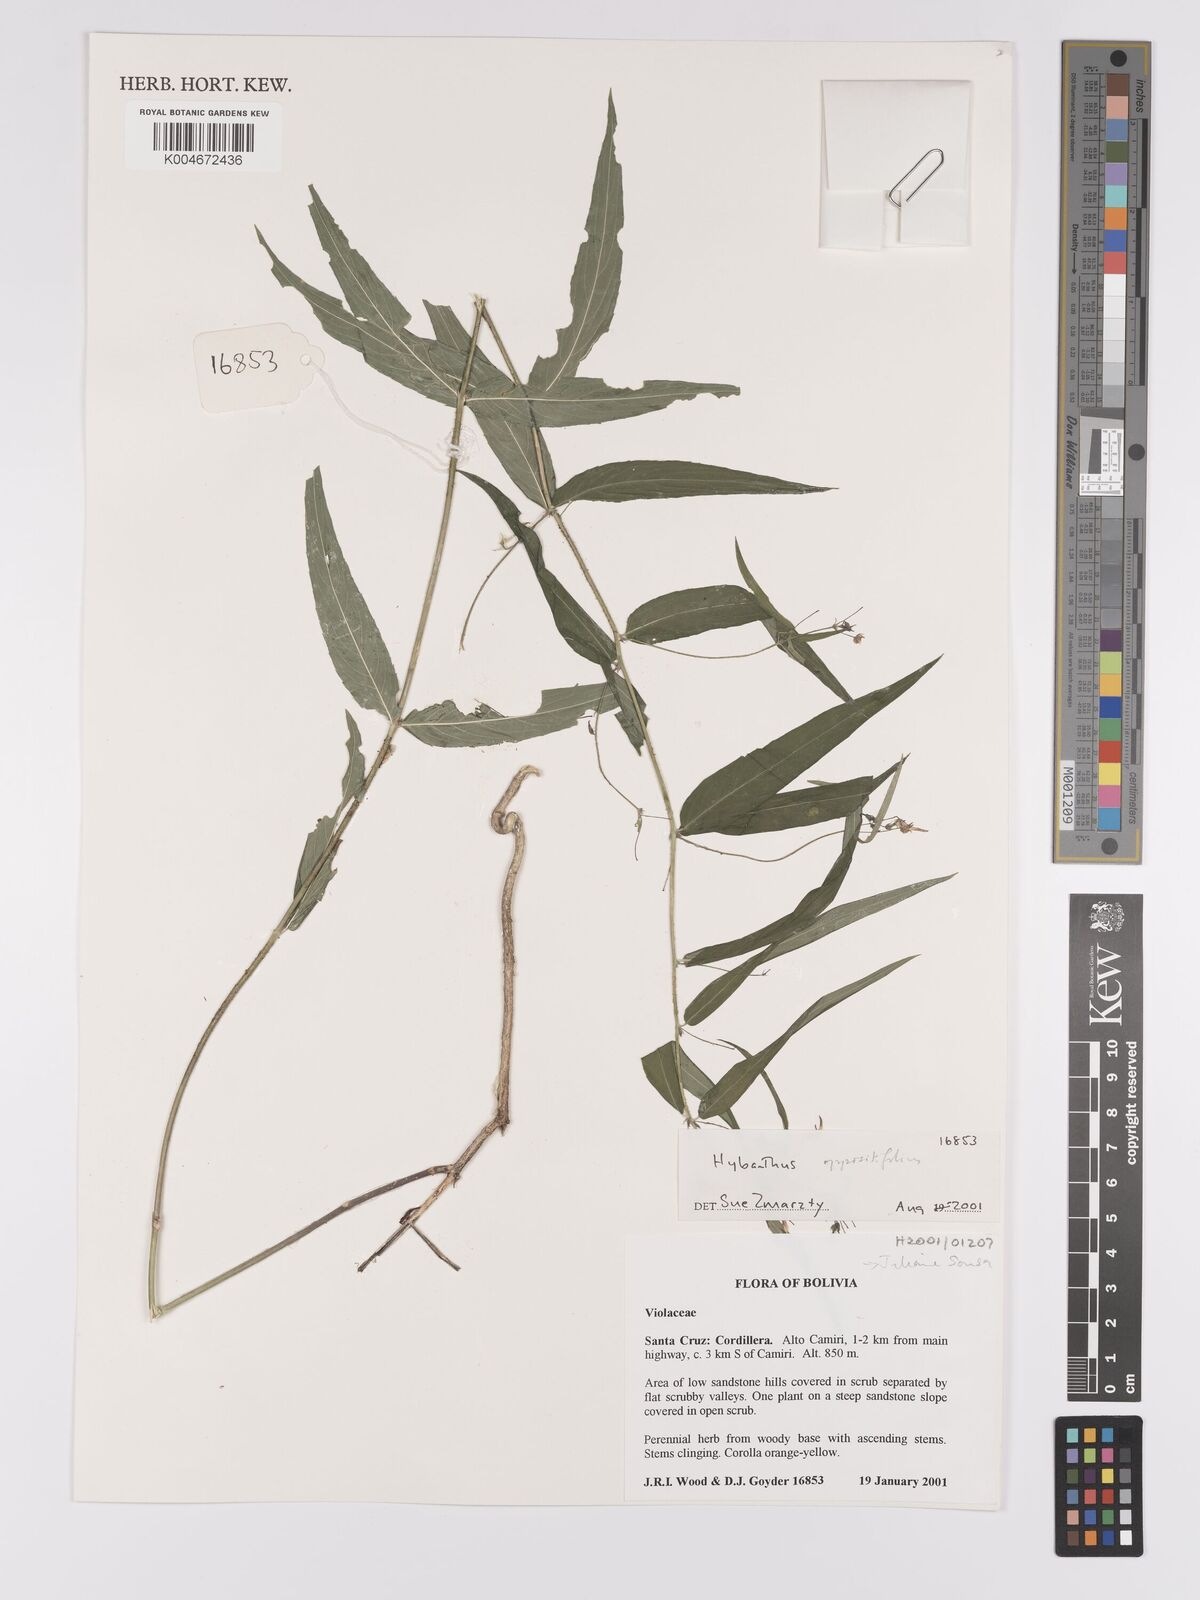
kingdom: Plantae
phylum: Tracheophyta
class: Magnoliopsida
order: Malpighiales
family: Violaceae
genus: Pombalia
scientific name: Pombalia oppositifolia
